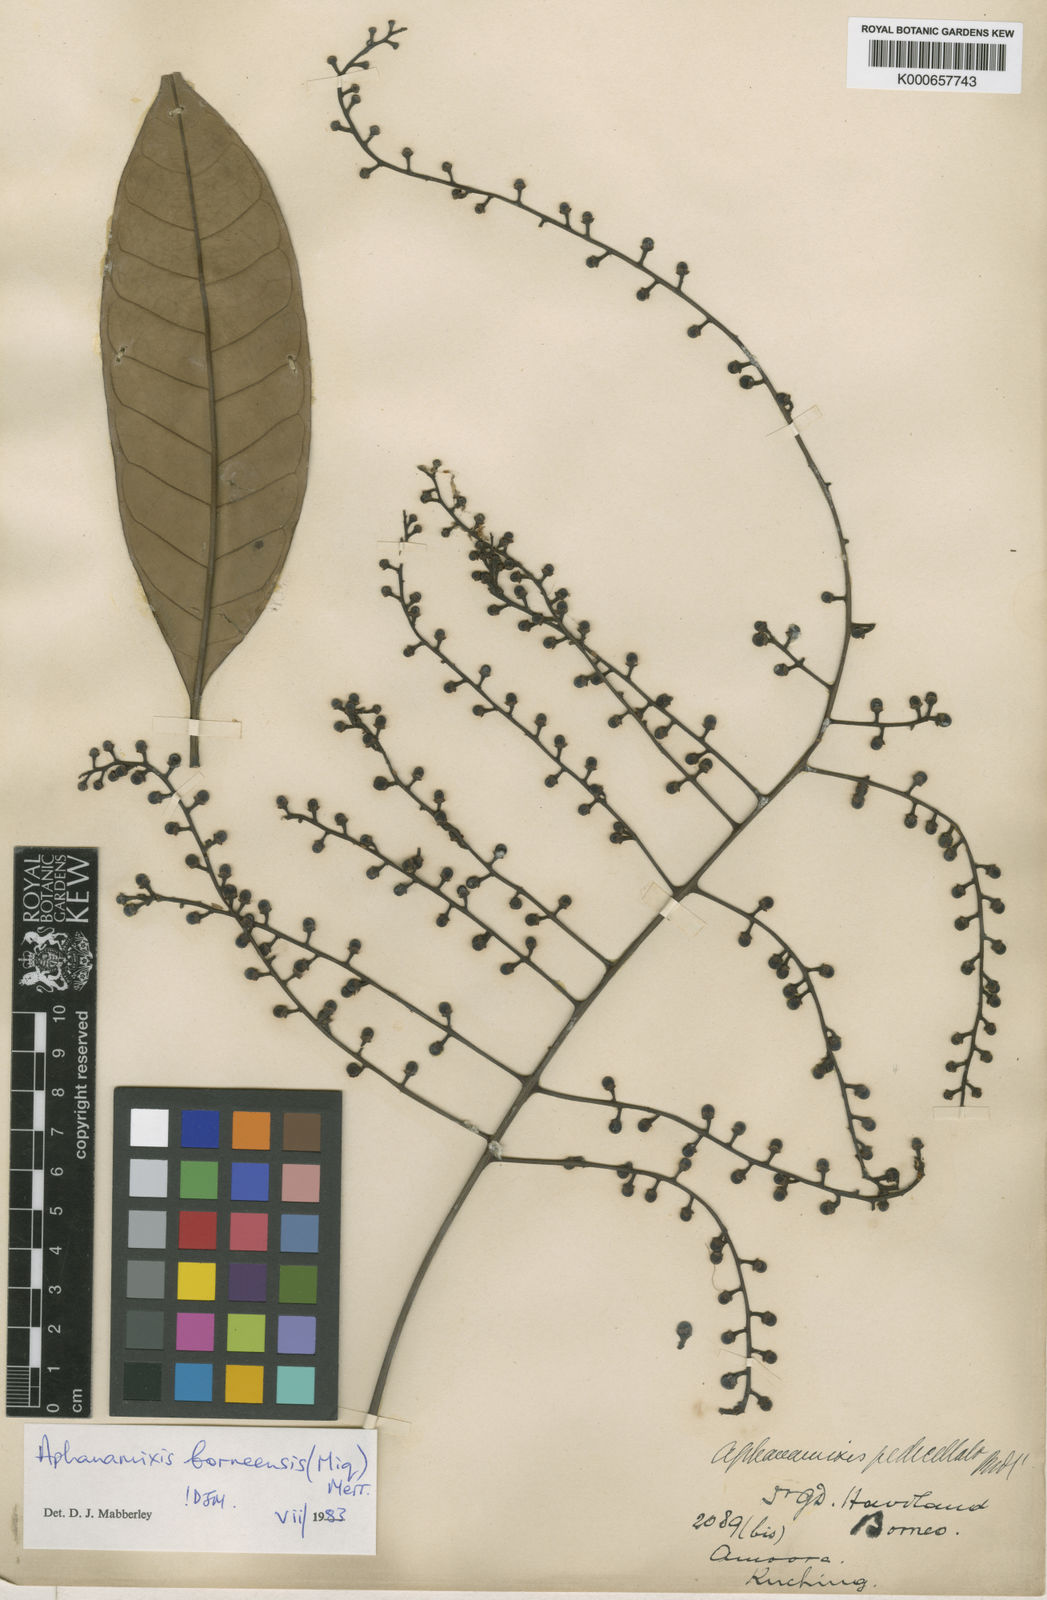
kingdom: Plantae
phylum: Tracheophyta
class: Magnoliopsida
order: Sapindales
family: Meliaceae
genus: Aphanamixis
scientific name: Aphanamixis borneensis
